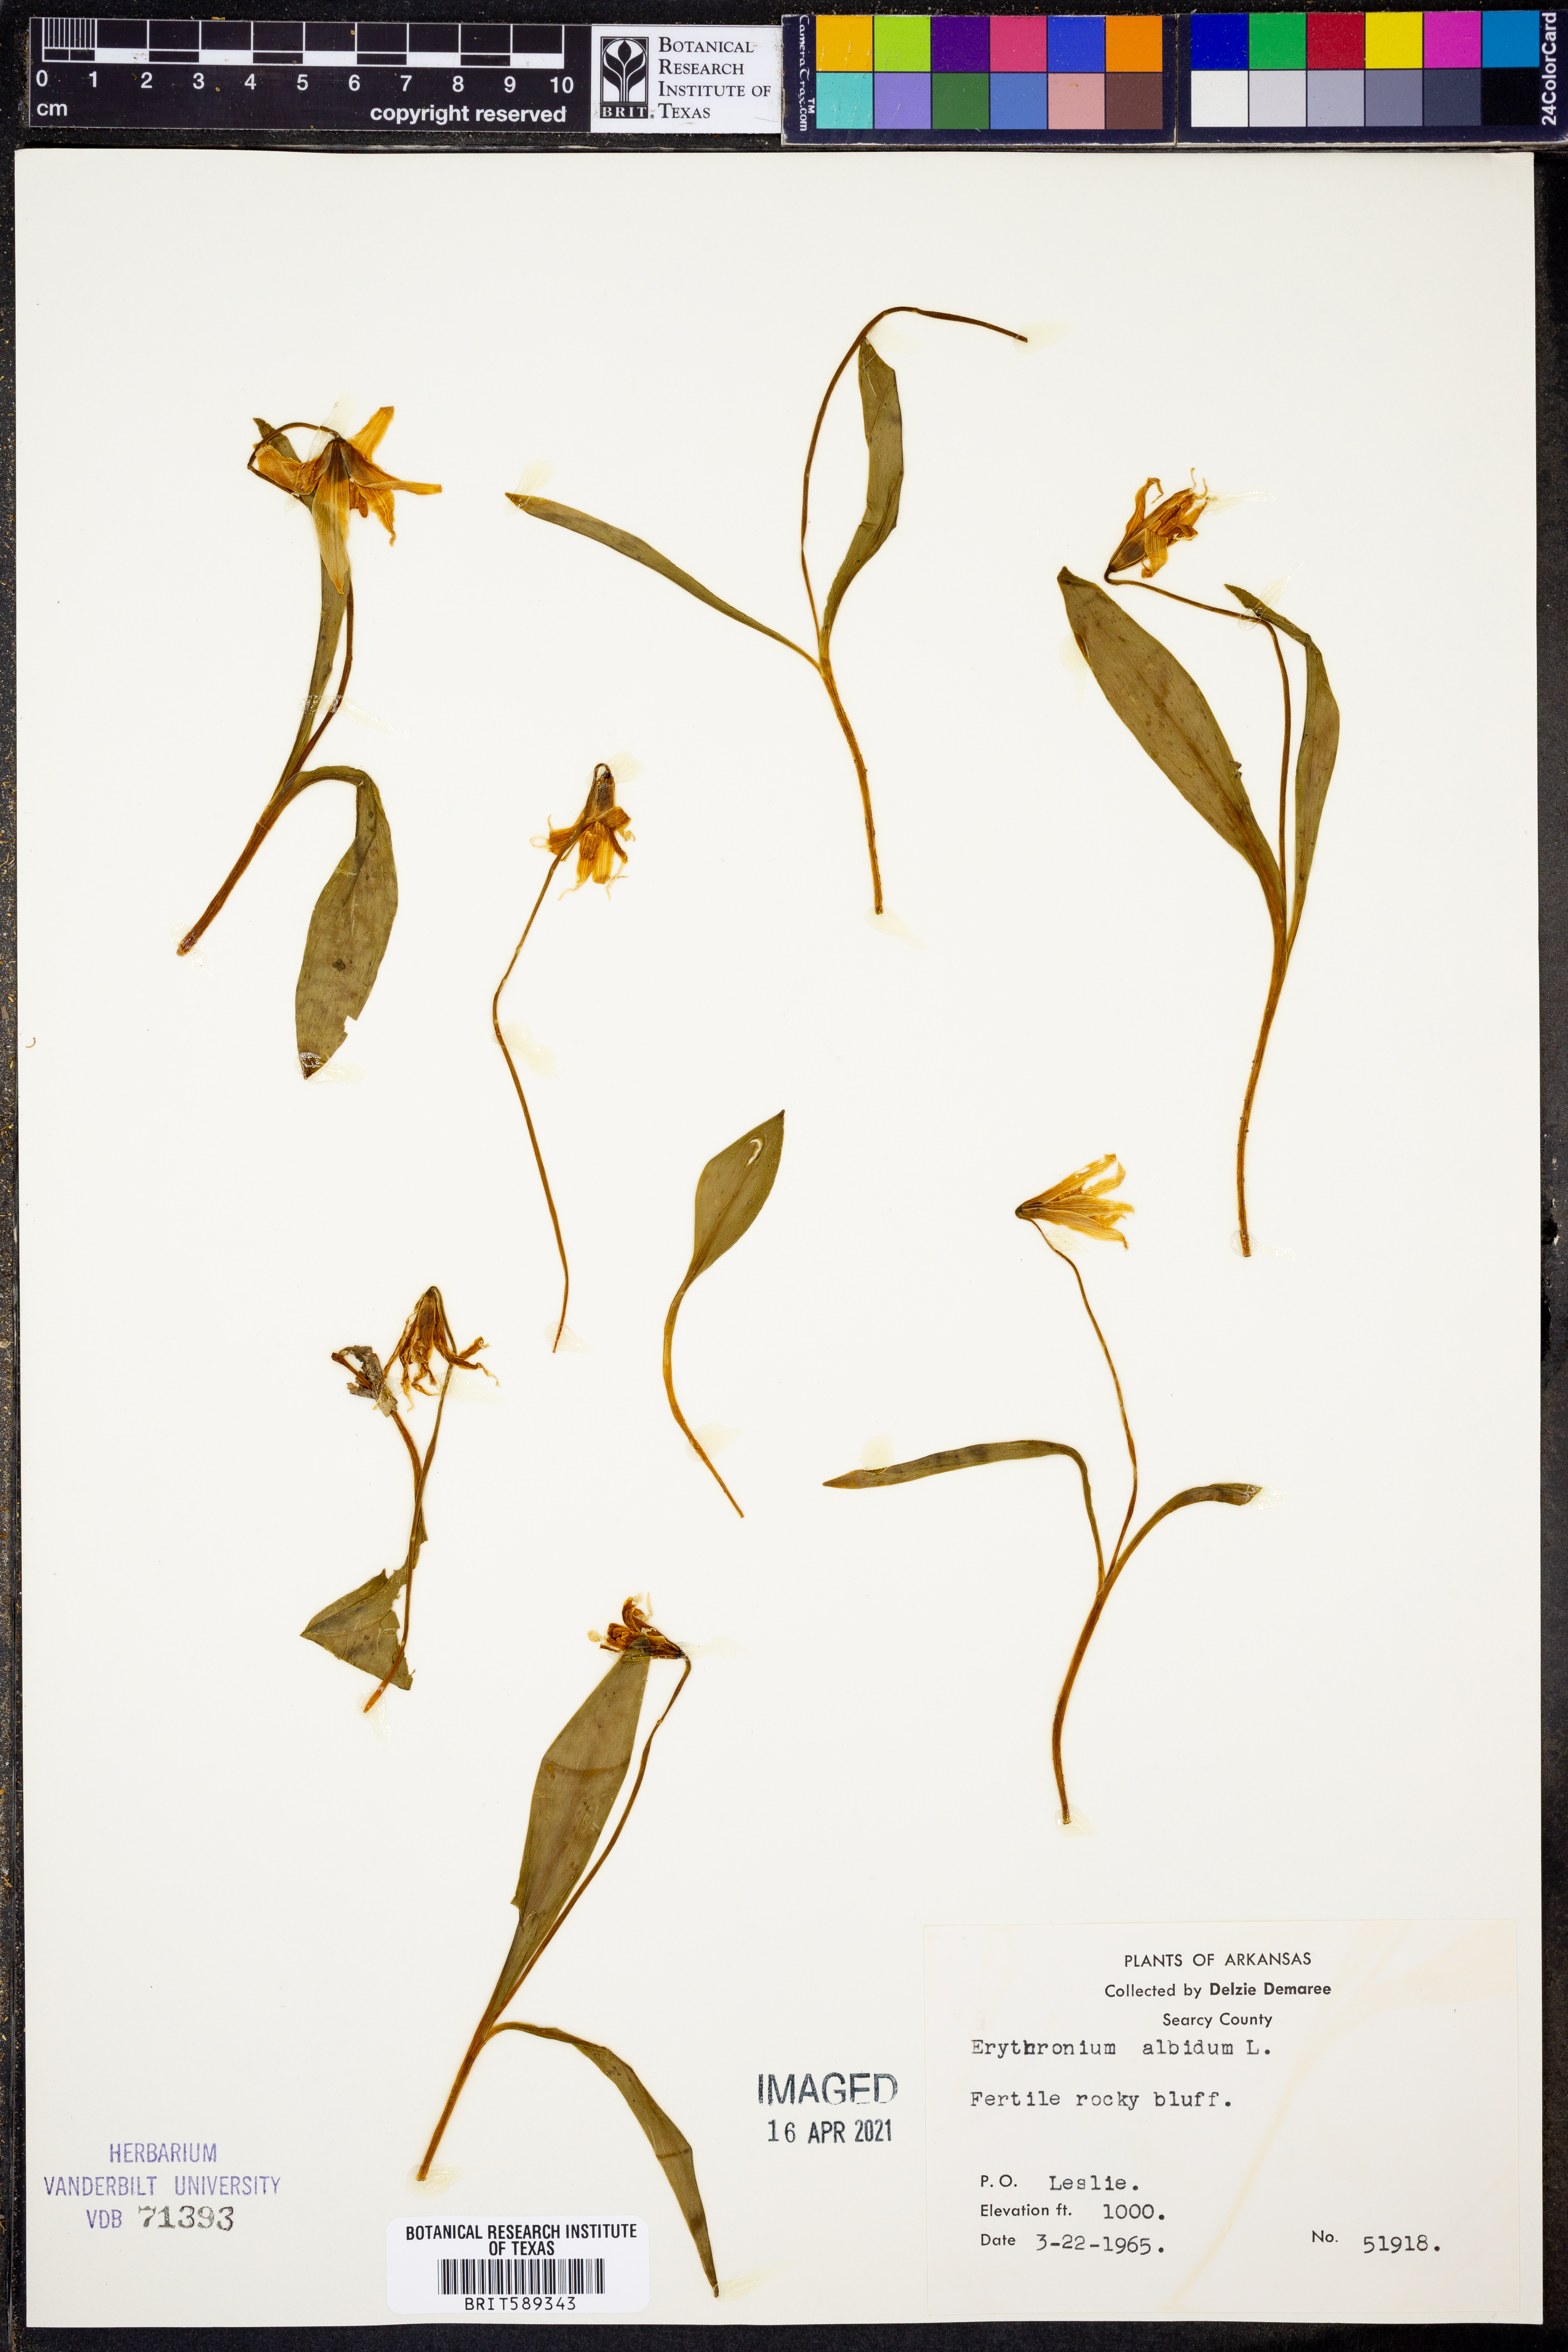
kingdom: Plantae
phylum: Tracheophyta
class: Liliopsida
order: Liliales
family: Liliaceae
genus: Erythronium
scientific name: Erythronium albidum
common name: White trout-lily
